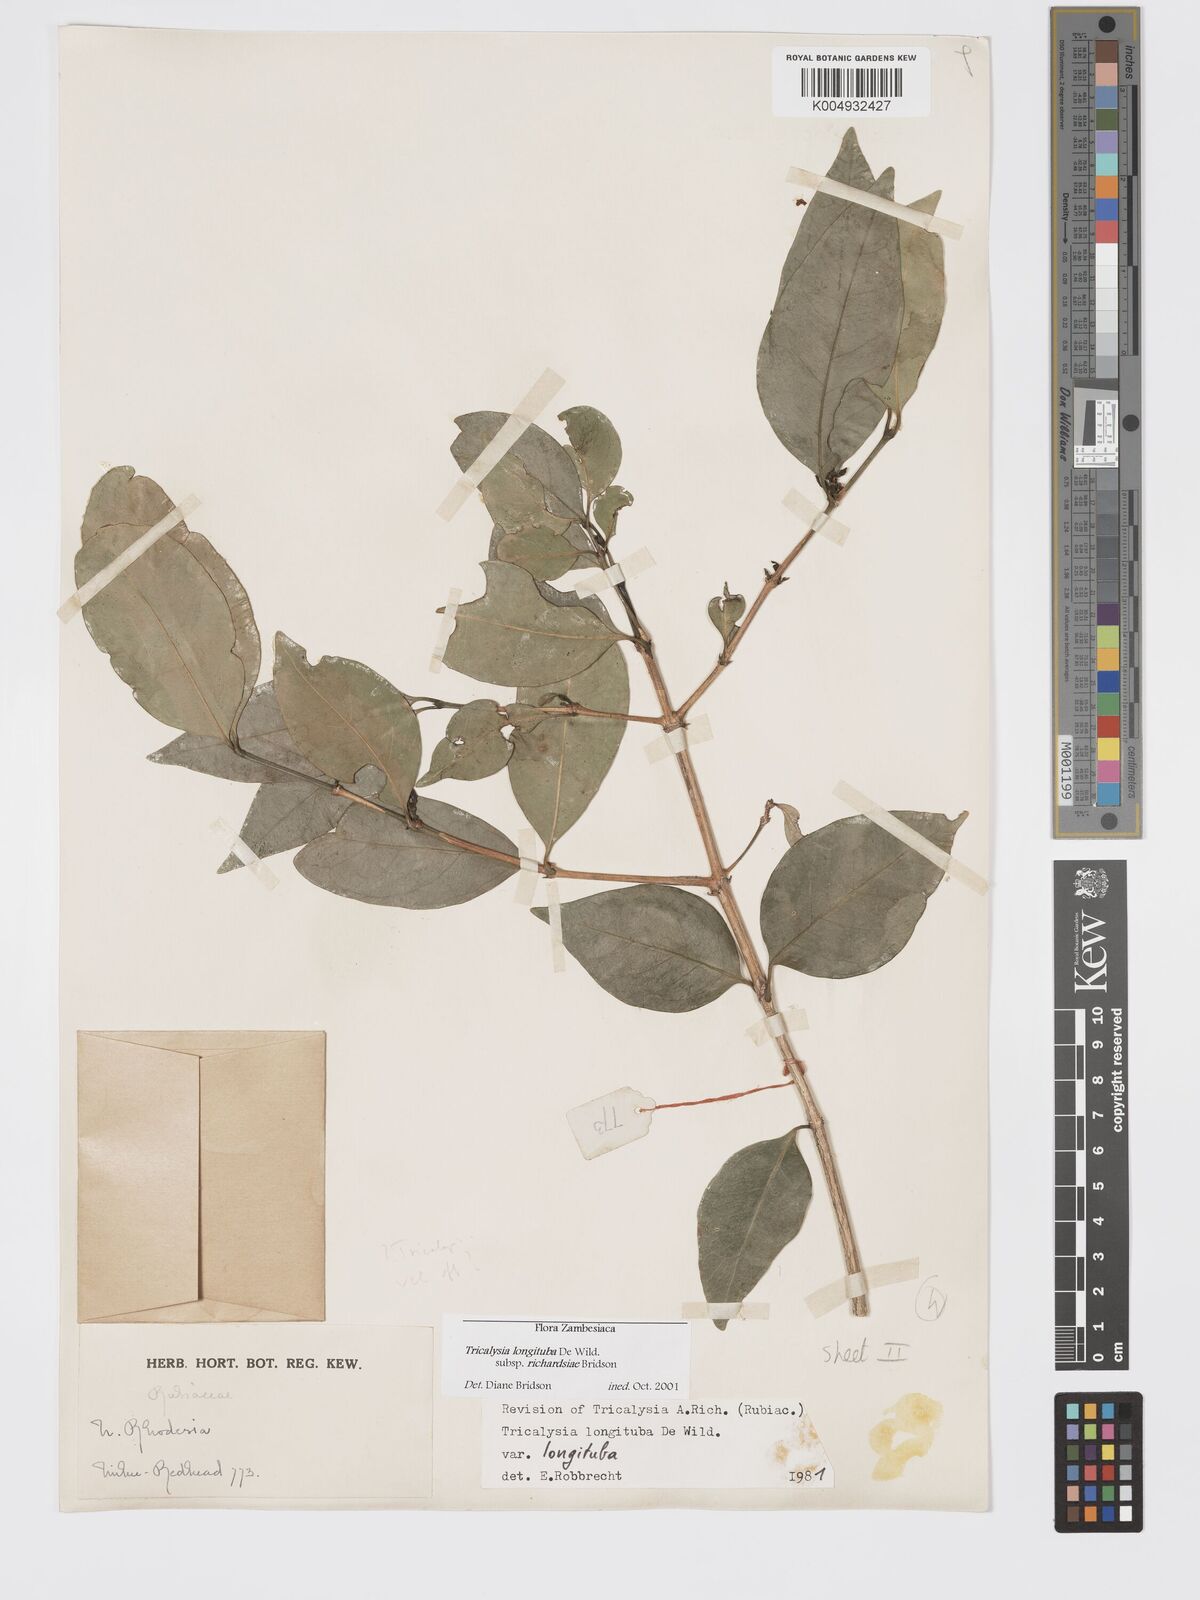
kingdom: Plantae
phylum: Tracheophyta
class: Magnoliopsida
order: Gentianales
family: Rubiaceae
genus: Tricalysia
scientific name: Tricalysia
